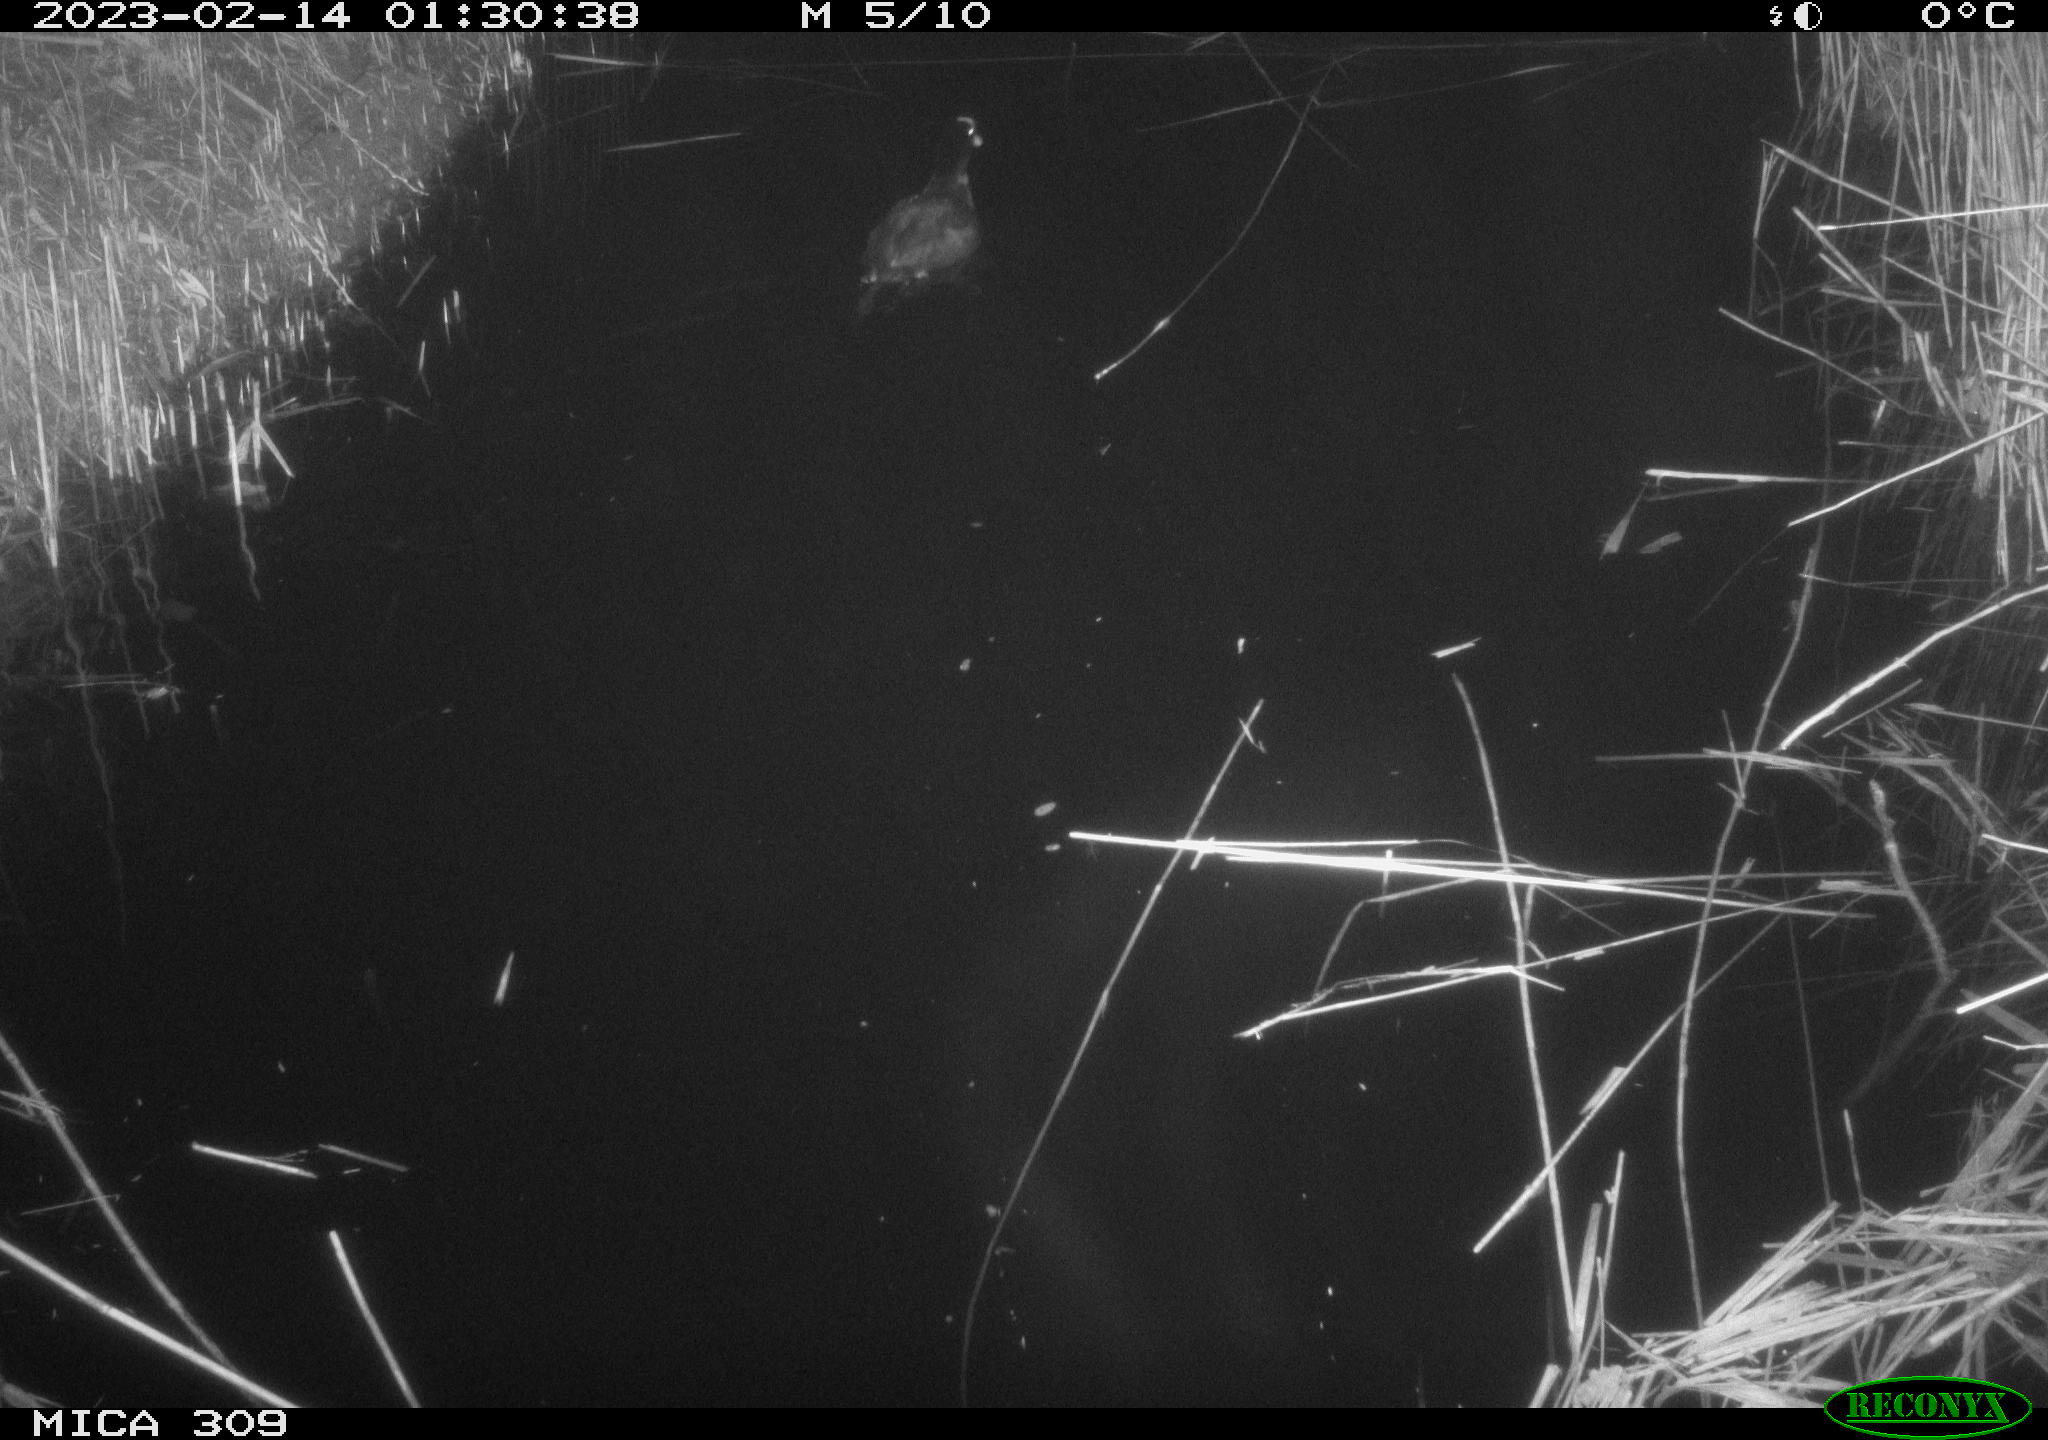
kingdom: Animalia
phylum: Chordata
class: Aves
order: Gruiformes
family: Rallidae
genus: Fulica
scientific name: Fulica atra
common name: Eurasian coot
